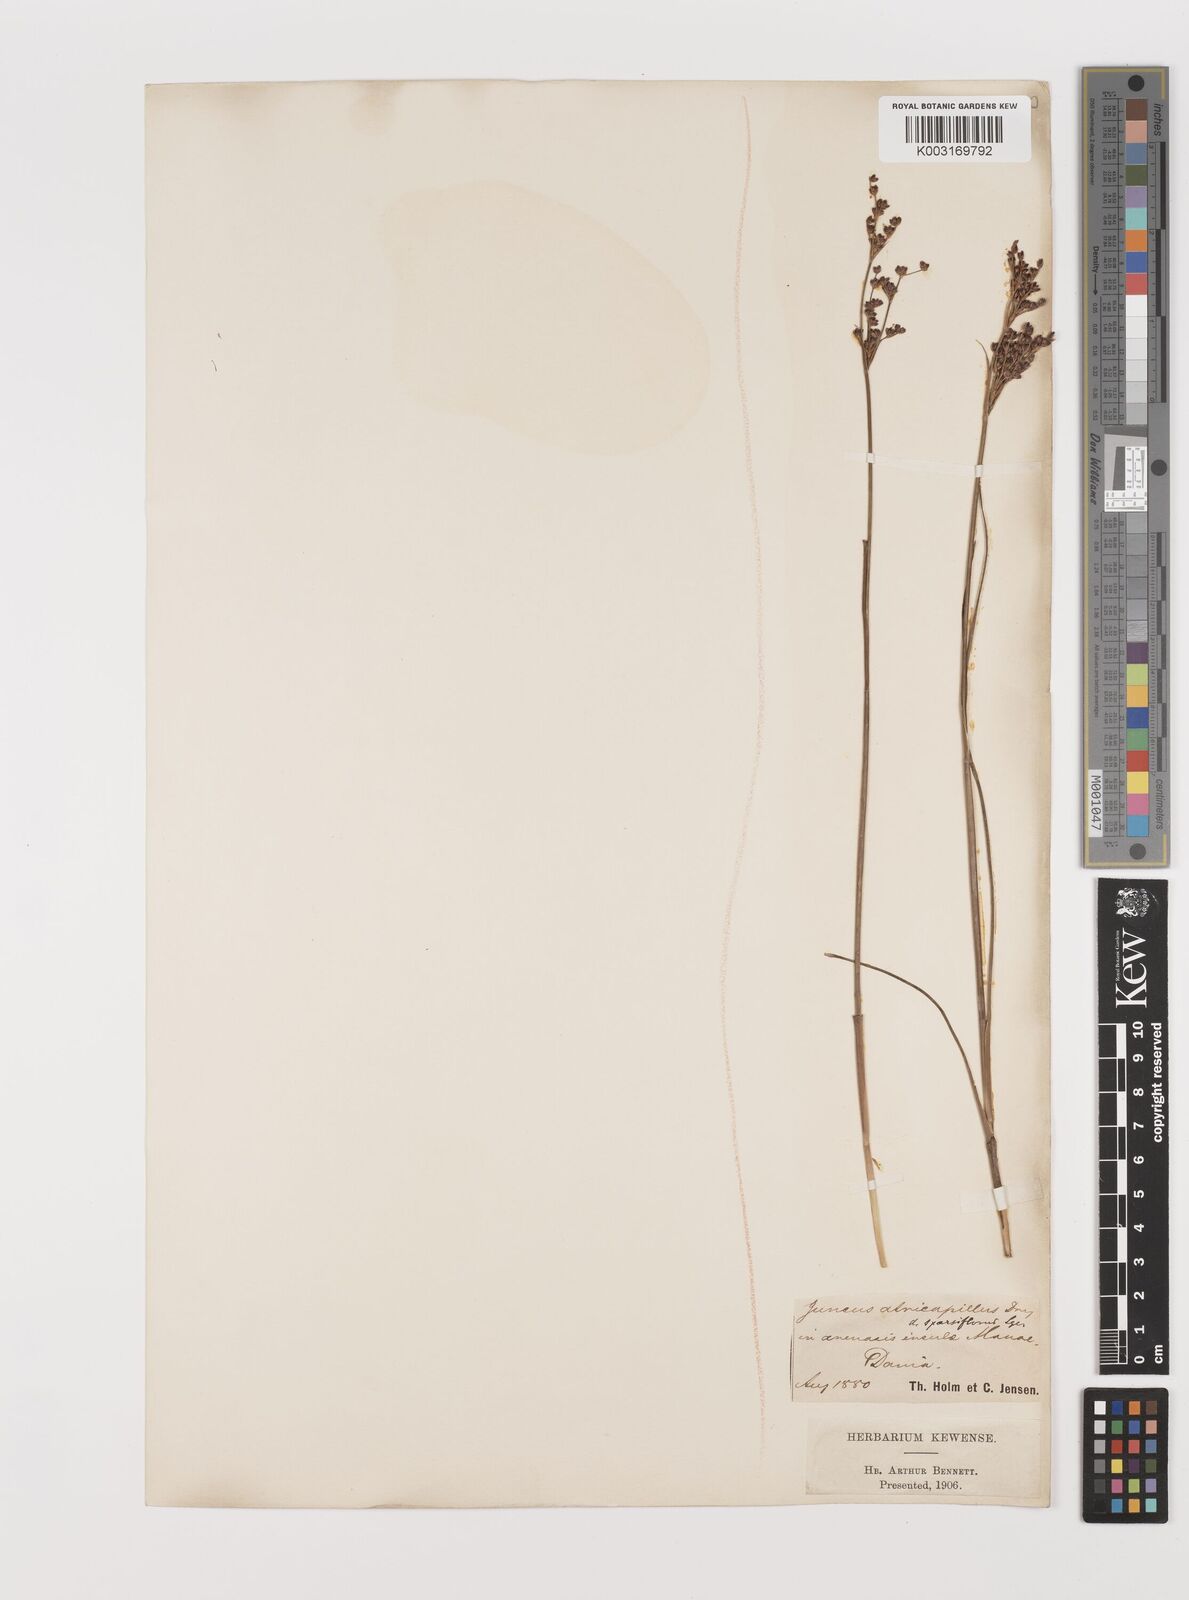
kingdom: Plantae
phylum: Tracheophyta
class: Liliopsida
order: Poales
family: Juncaceae
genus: Juncus
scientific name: Juncus anceps
